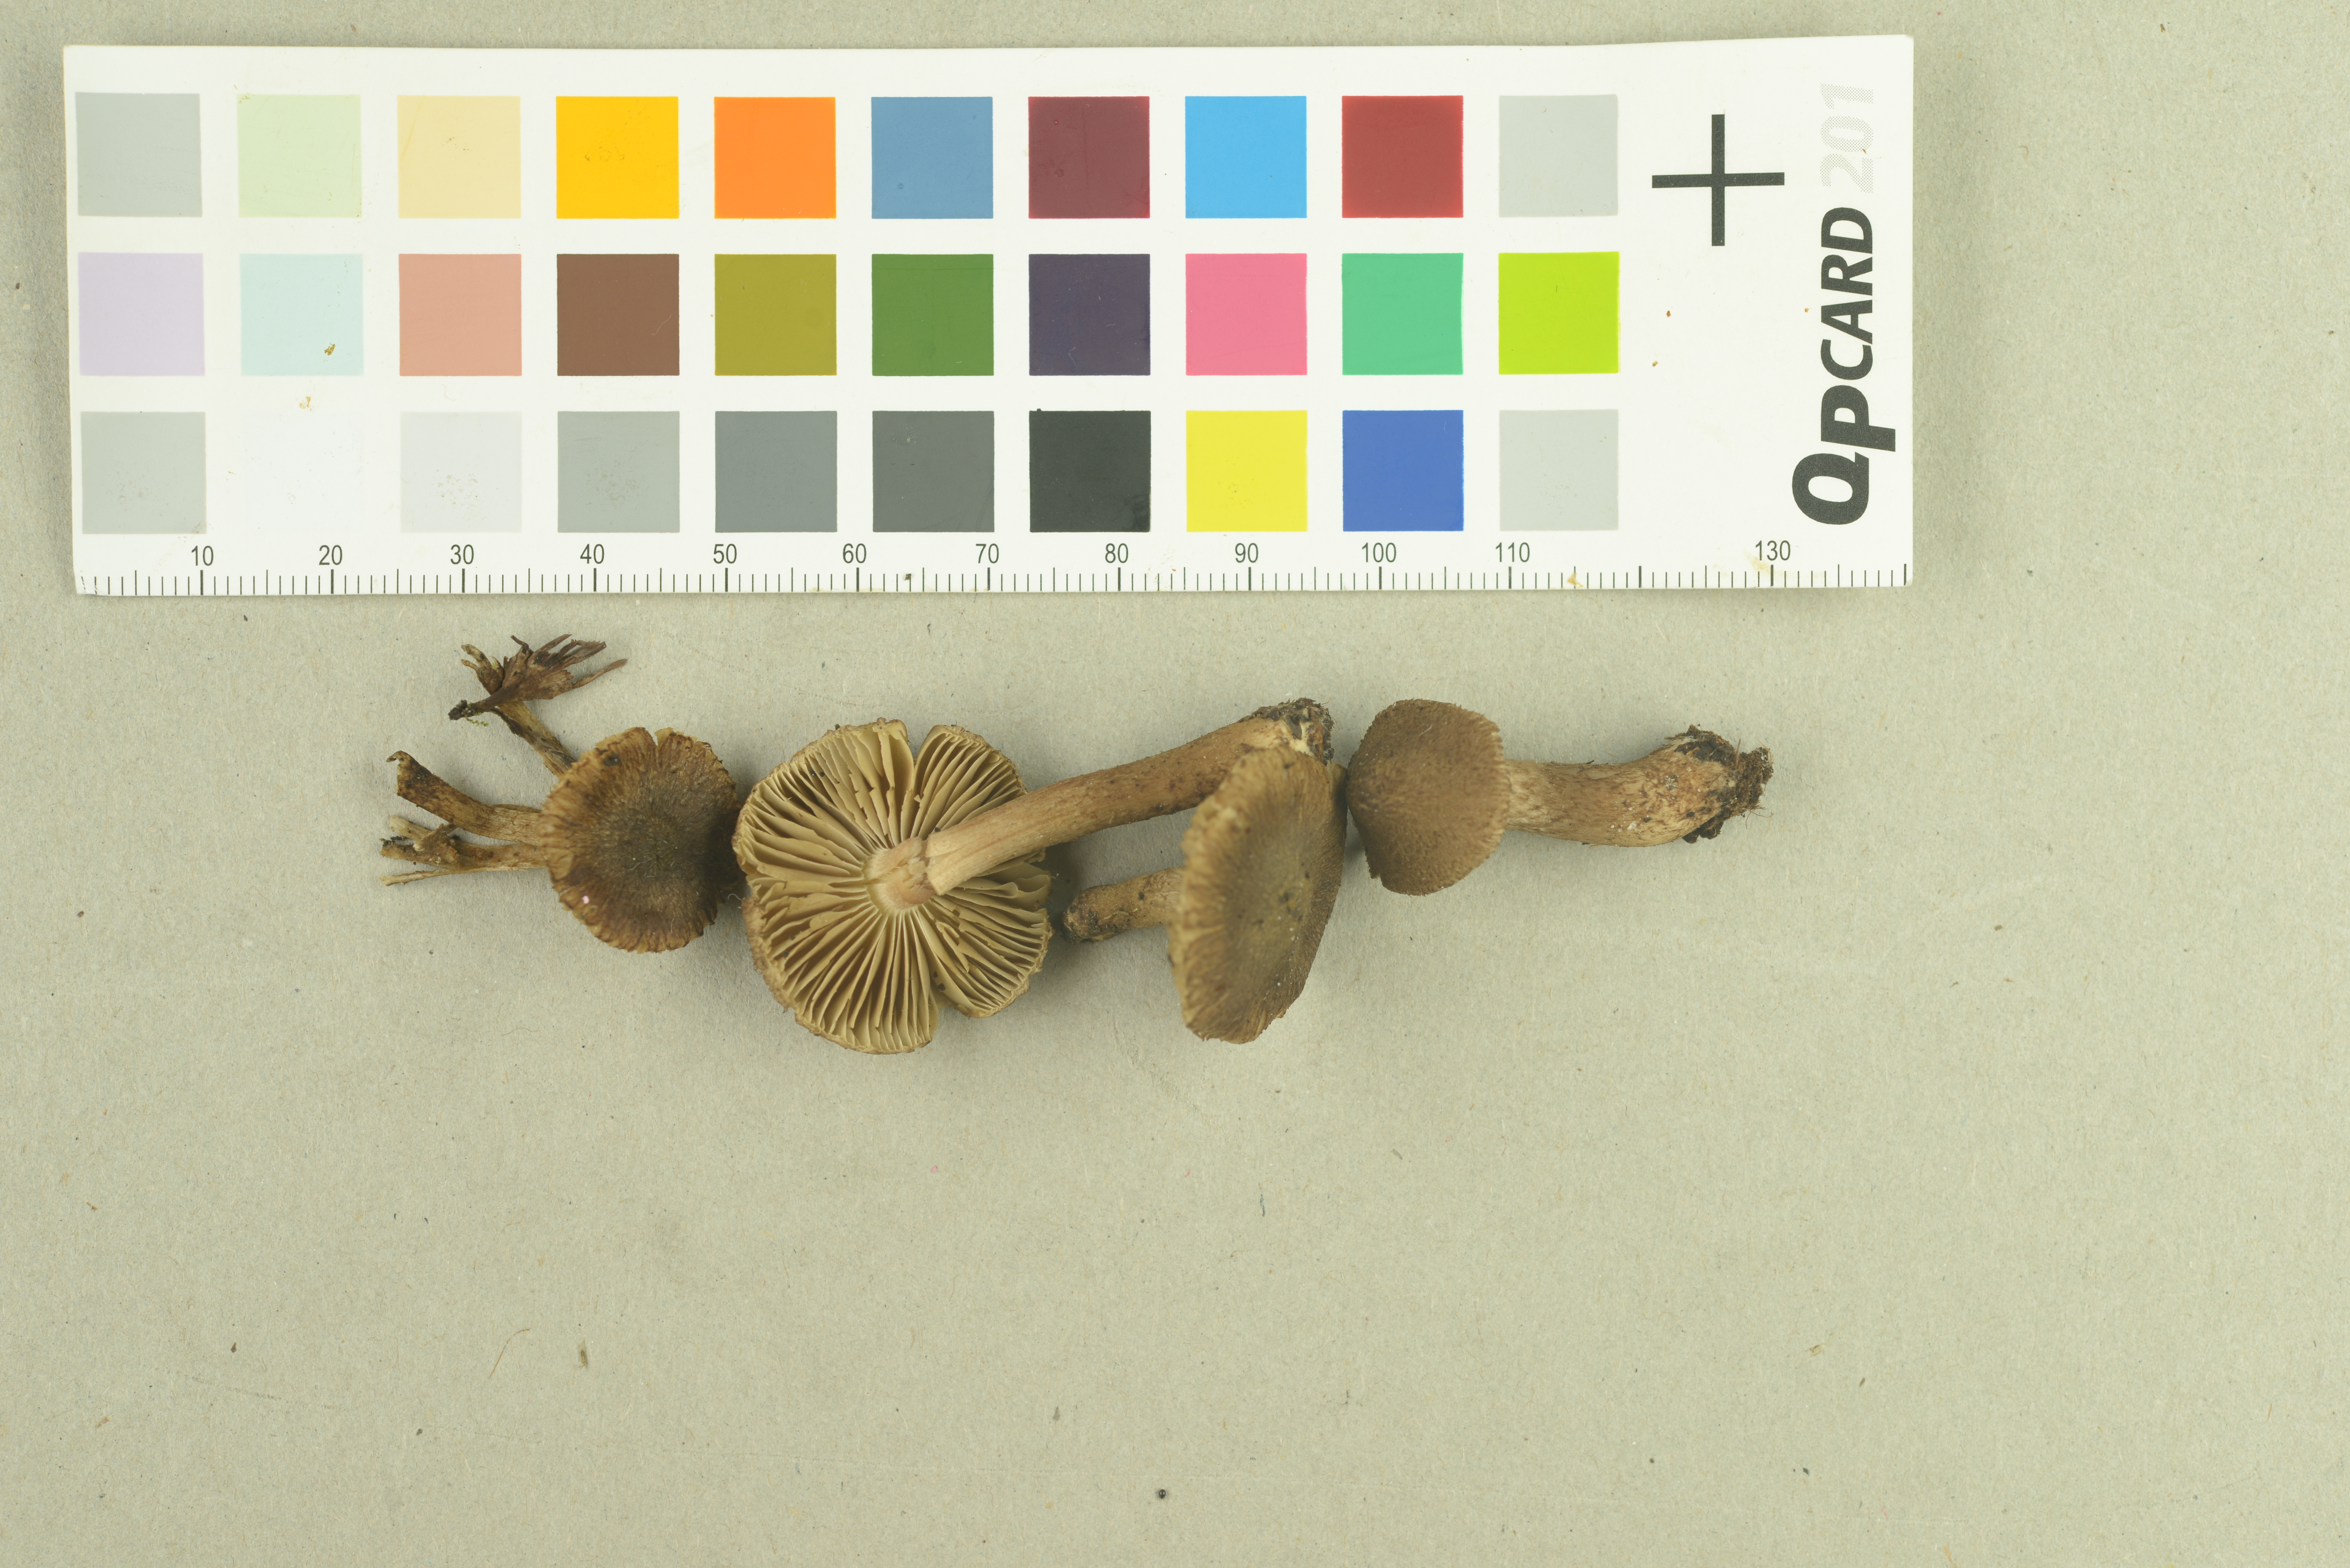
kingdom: Fungi
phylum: Basidiomycota
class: Agaricomycetes
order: Agaricales
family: Inocybaceae
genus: Inocybe
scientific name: Inocybe pseudoteraturgus
